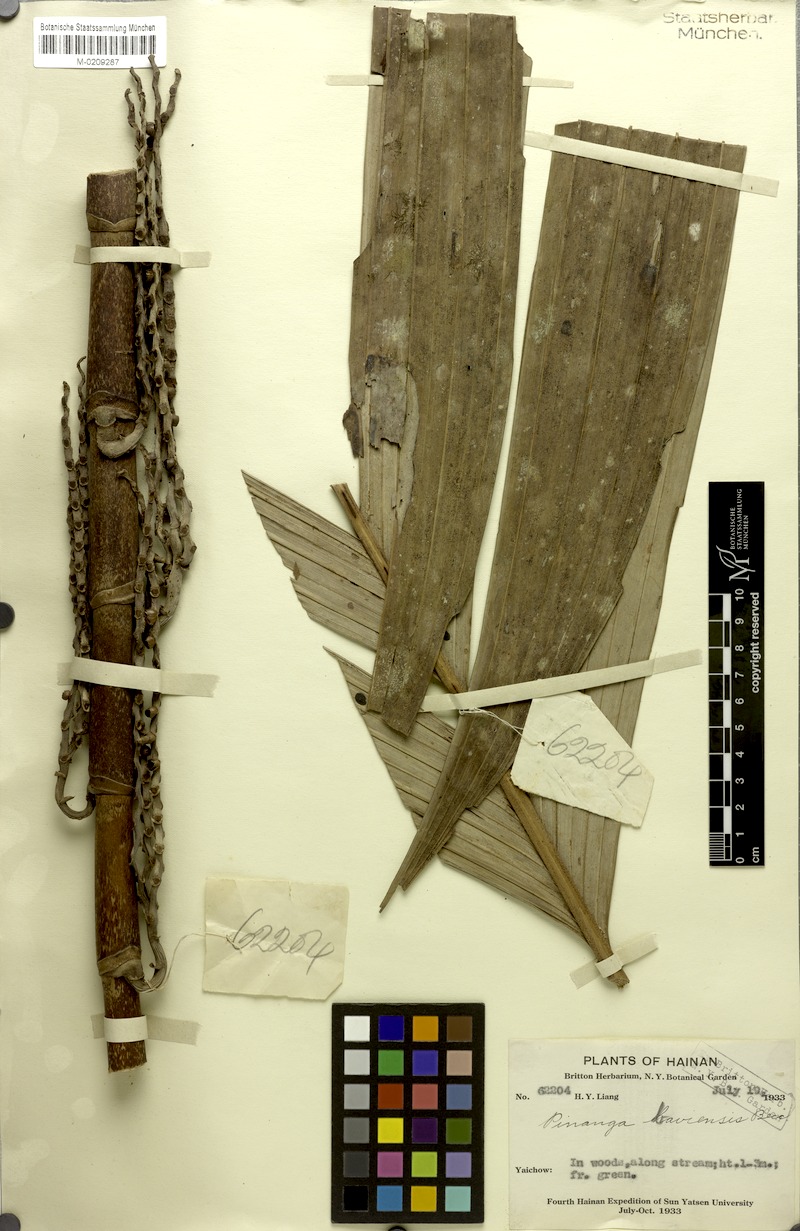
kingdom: Plantae
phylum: Tracheophyta
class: Liliopsida
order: Arecales
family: Arecaceae
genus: Pinanga
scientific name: Pinanga baviensis
